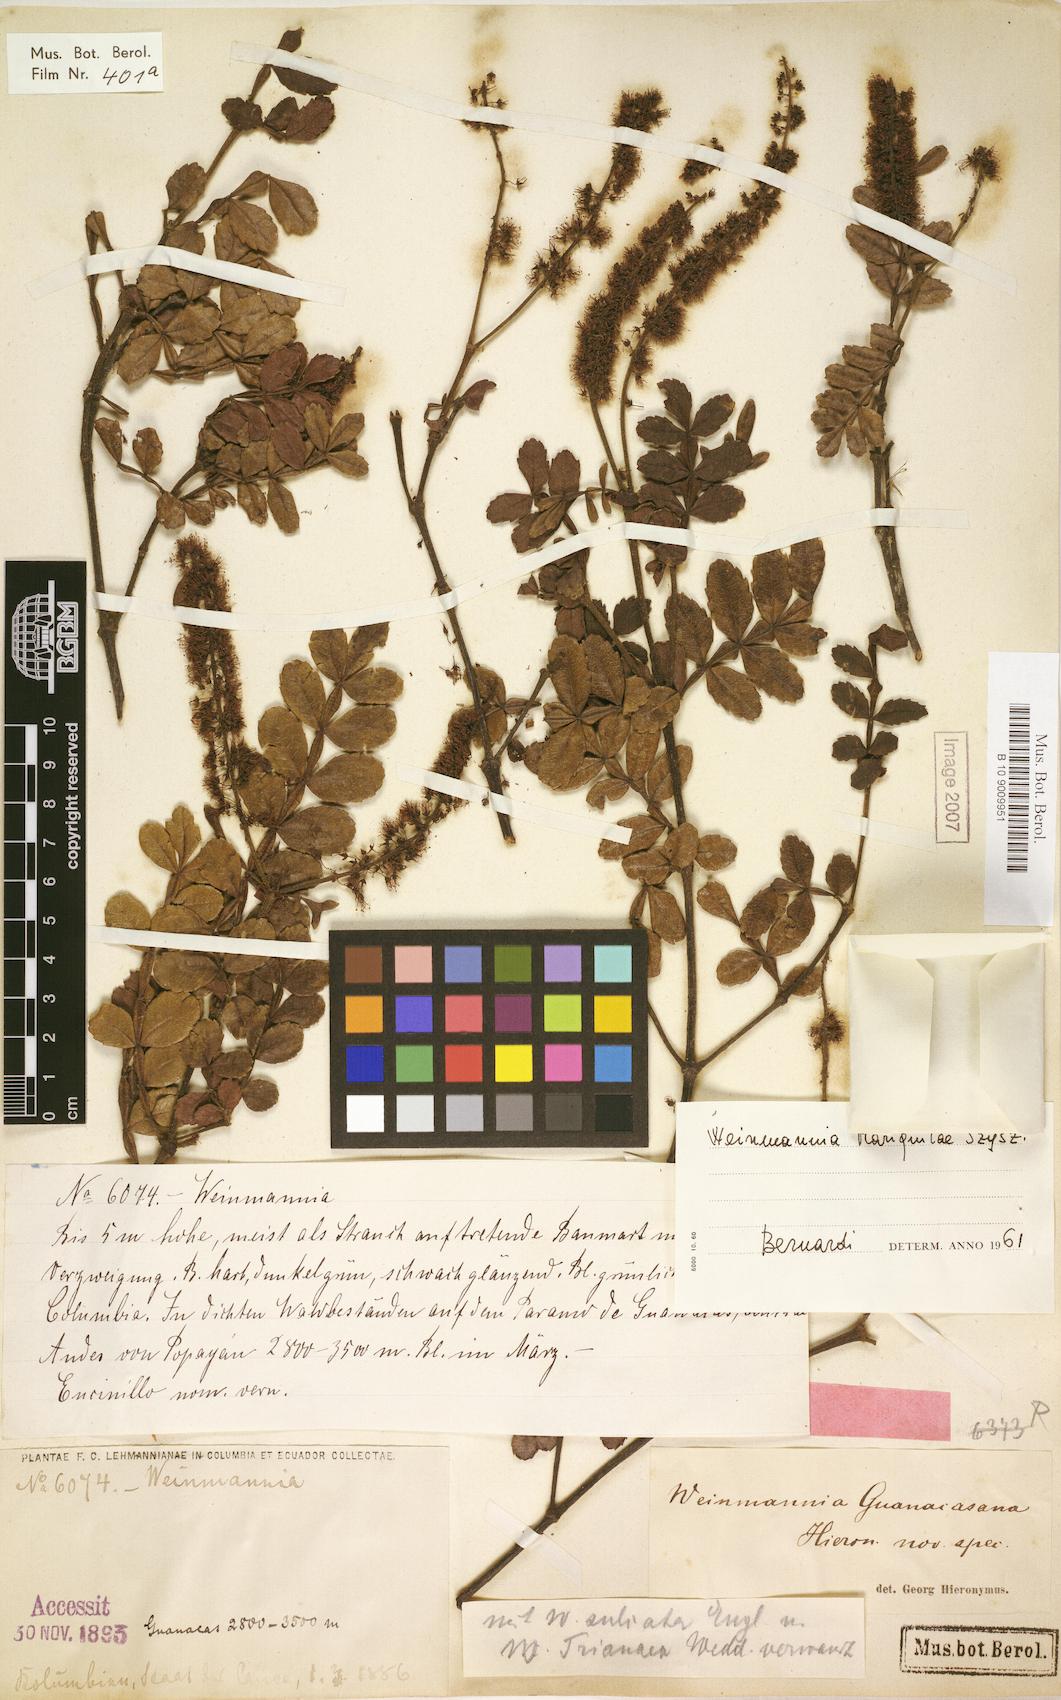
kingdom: Plantae
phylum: Tracheophyta
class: Magnoliopsida
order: Oxalidales
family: Cunoniaceae
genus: Weinmannia
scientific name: Weinmannia mariquitae
